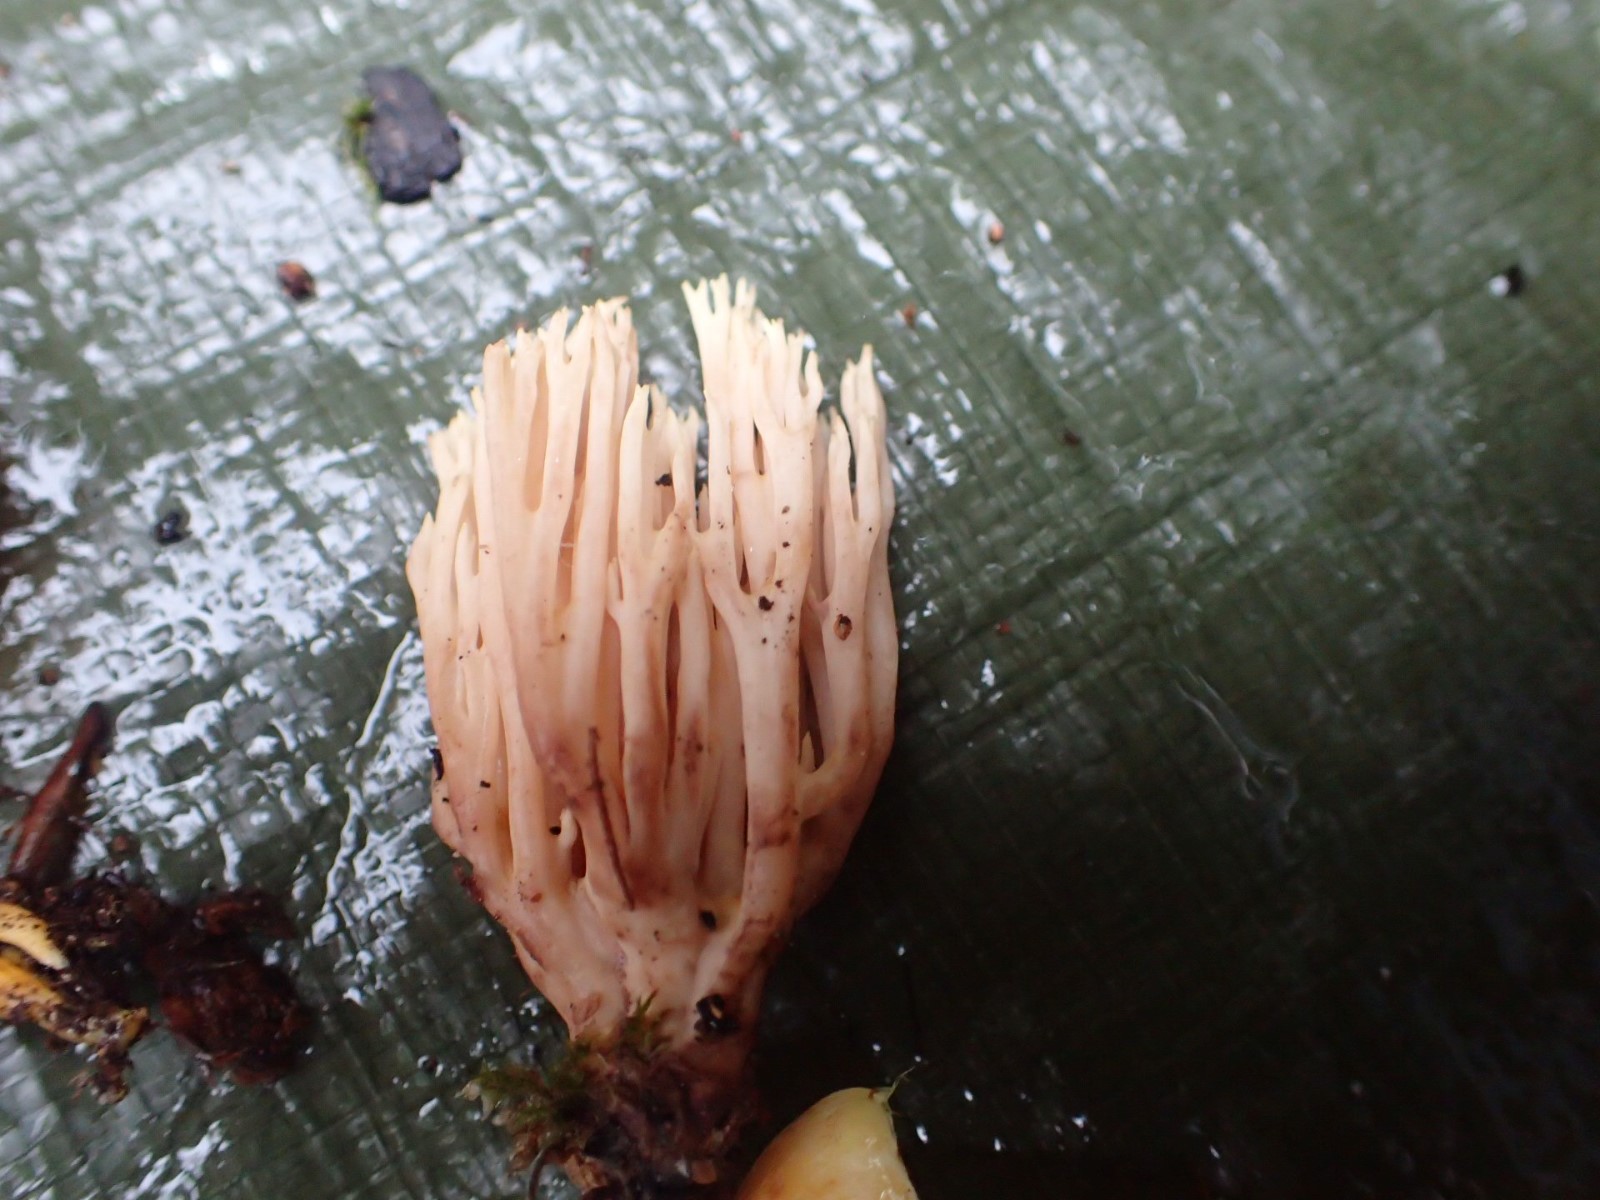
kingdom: Fungi
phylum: Basidiomycota
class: Agaricomycetes
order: Gomphales
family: Gomphaceae
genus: Ramaria
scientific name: Ramaria stricta
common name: rank koralsvamp
